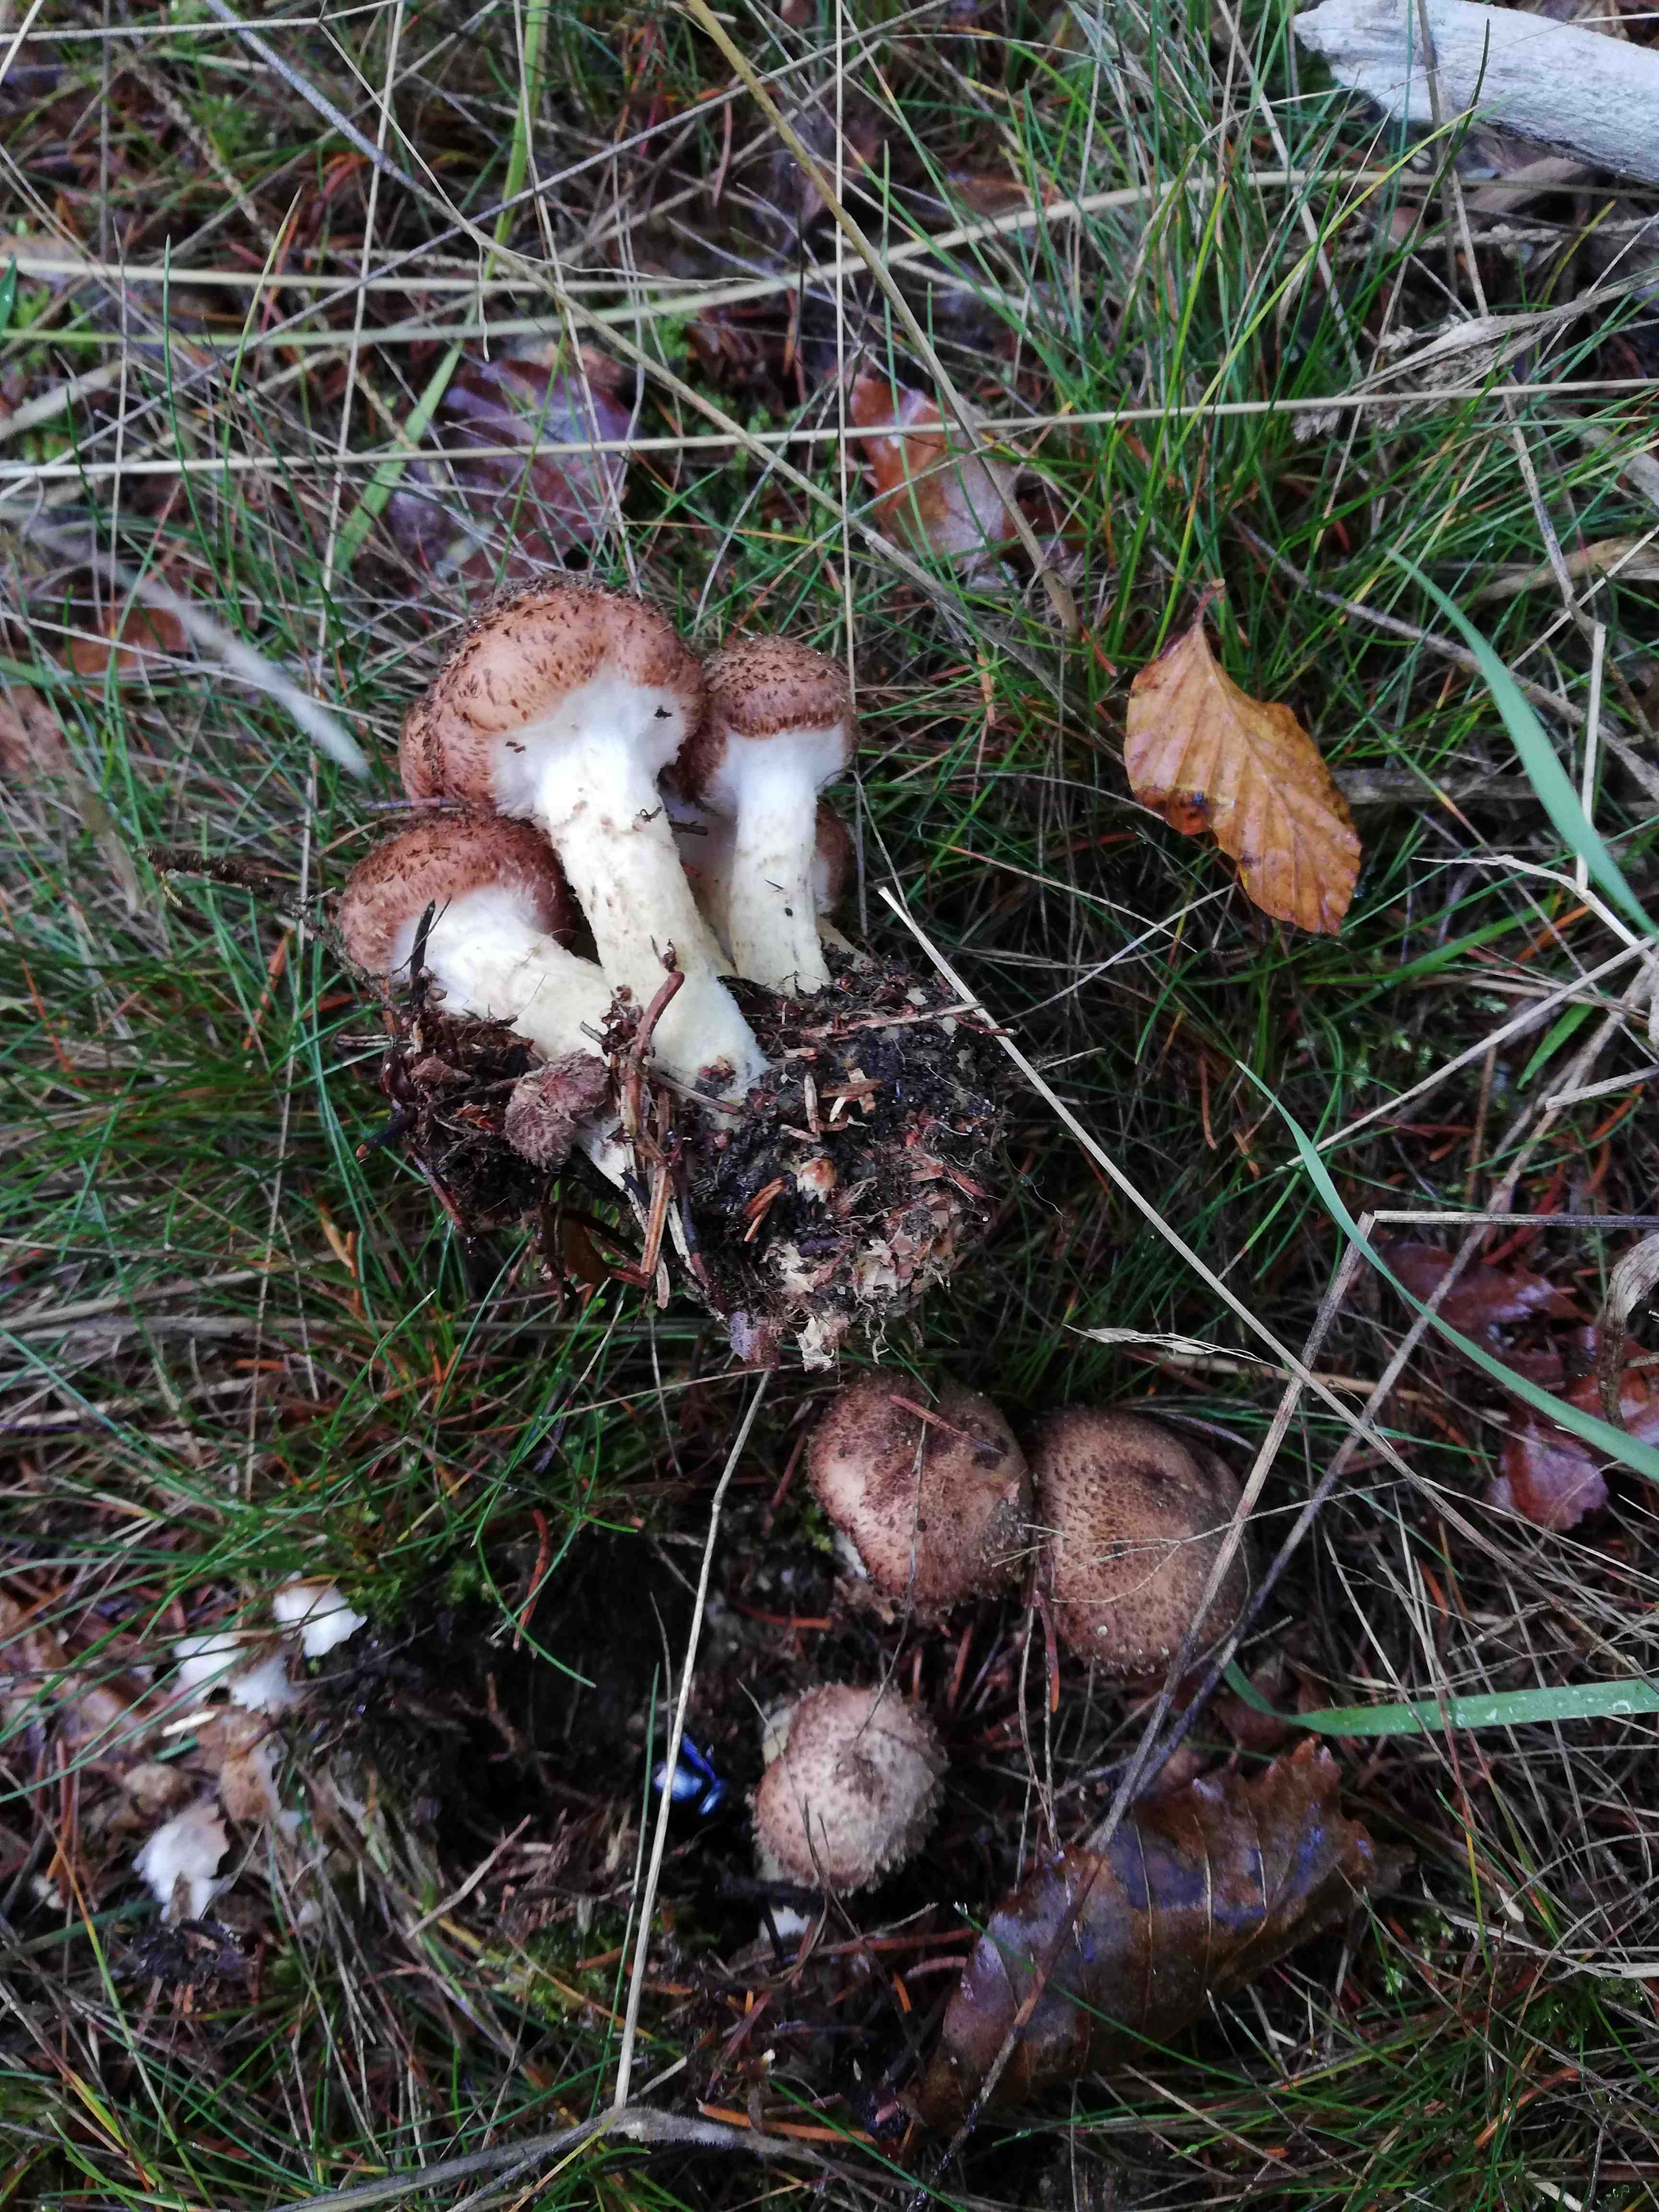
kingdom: Fungi
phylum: Basidiomycota
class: Agaricomycetes
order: Agaricales
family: Physalacriaceae
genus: Armillaria
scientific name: Armillaria ostoyae
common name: mørk honningsvamp
